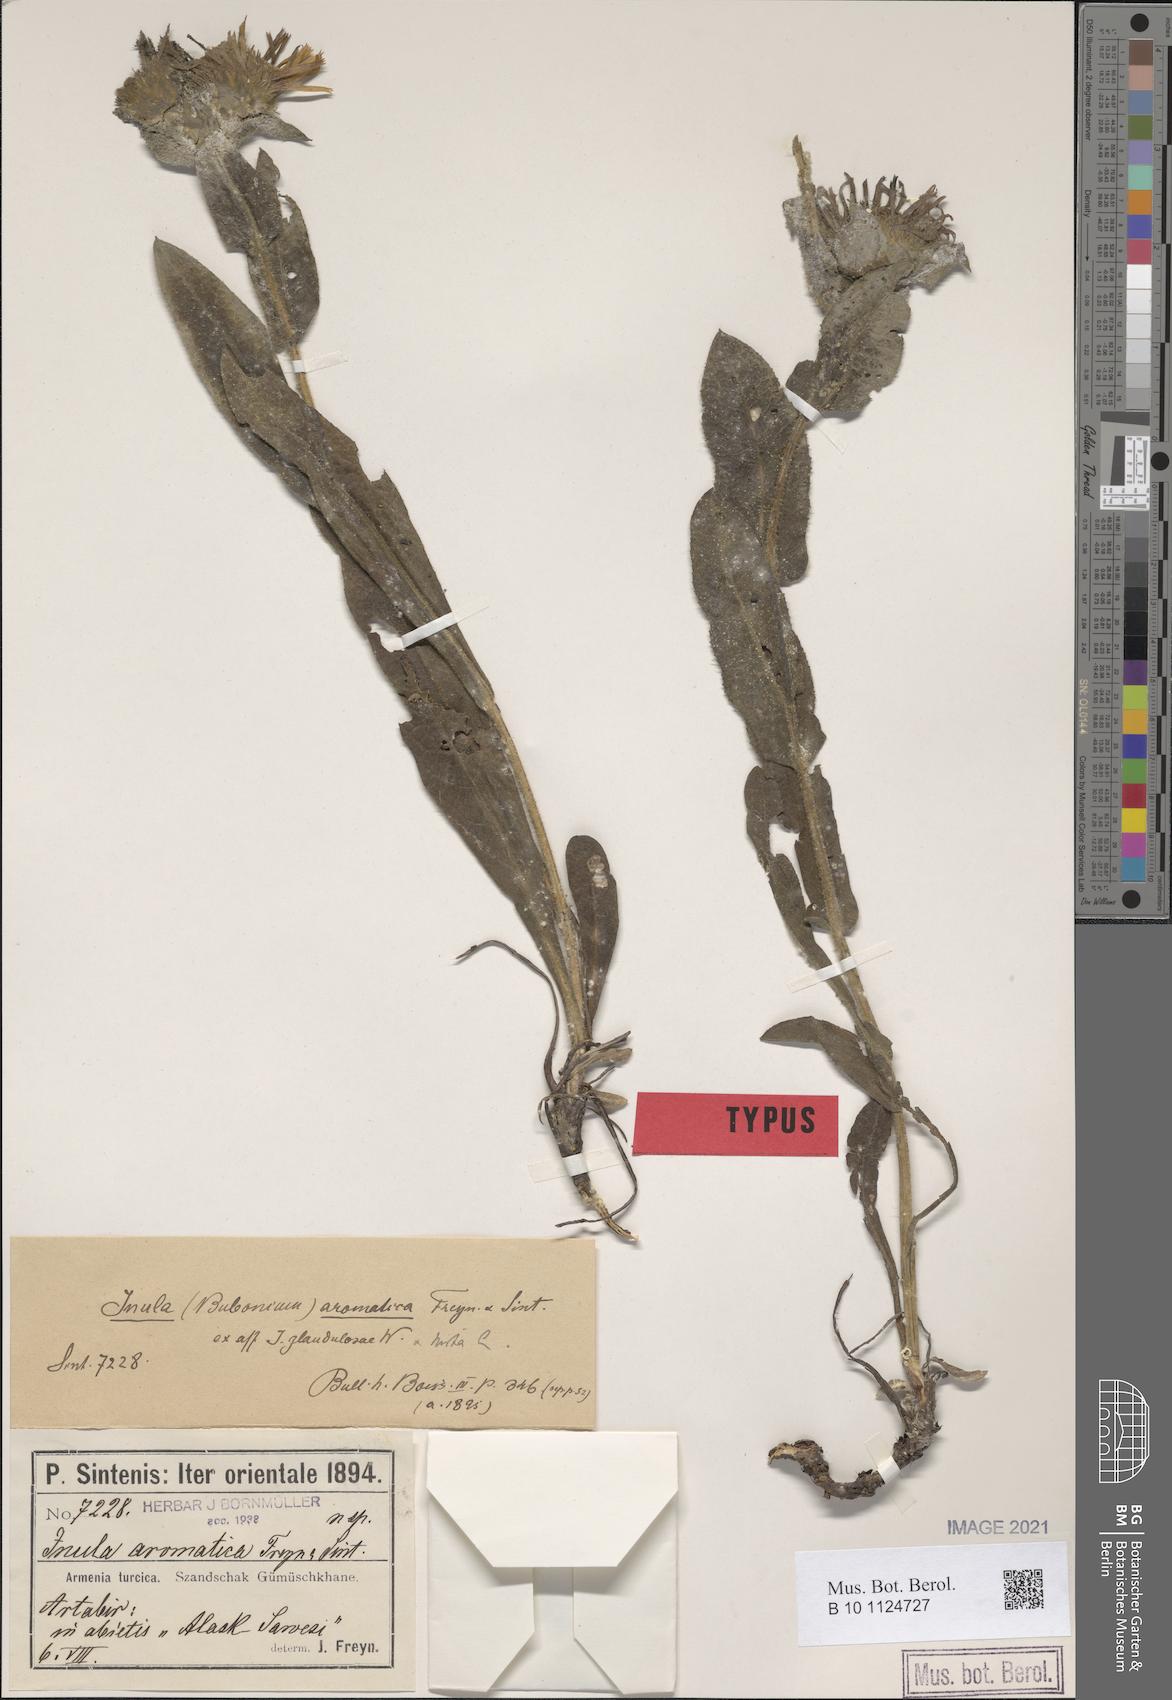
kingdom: Plantae
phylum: Tracheophyta
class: Magnoliopsida
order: Asterales
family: Asteraceae
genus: Pentanema
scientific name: Pentanema mariae
